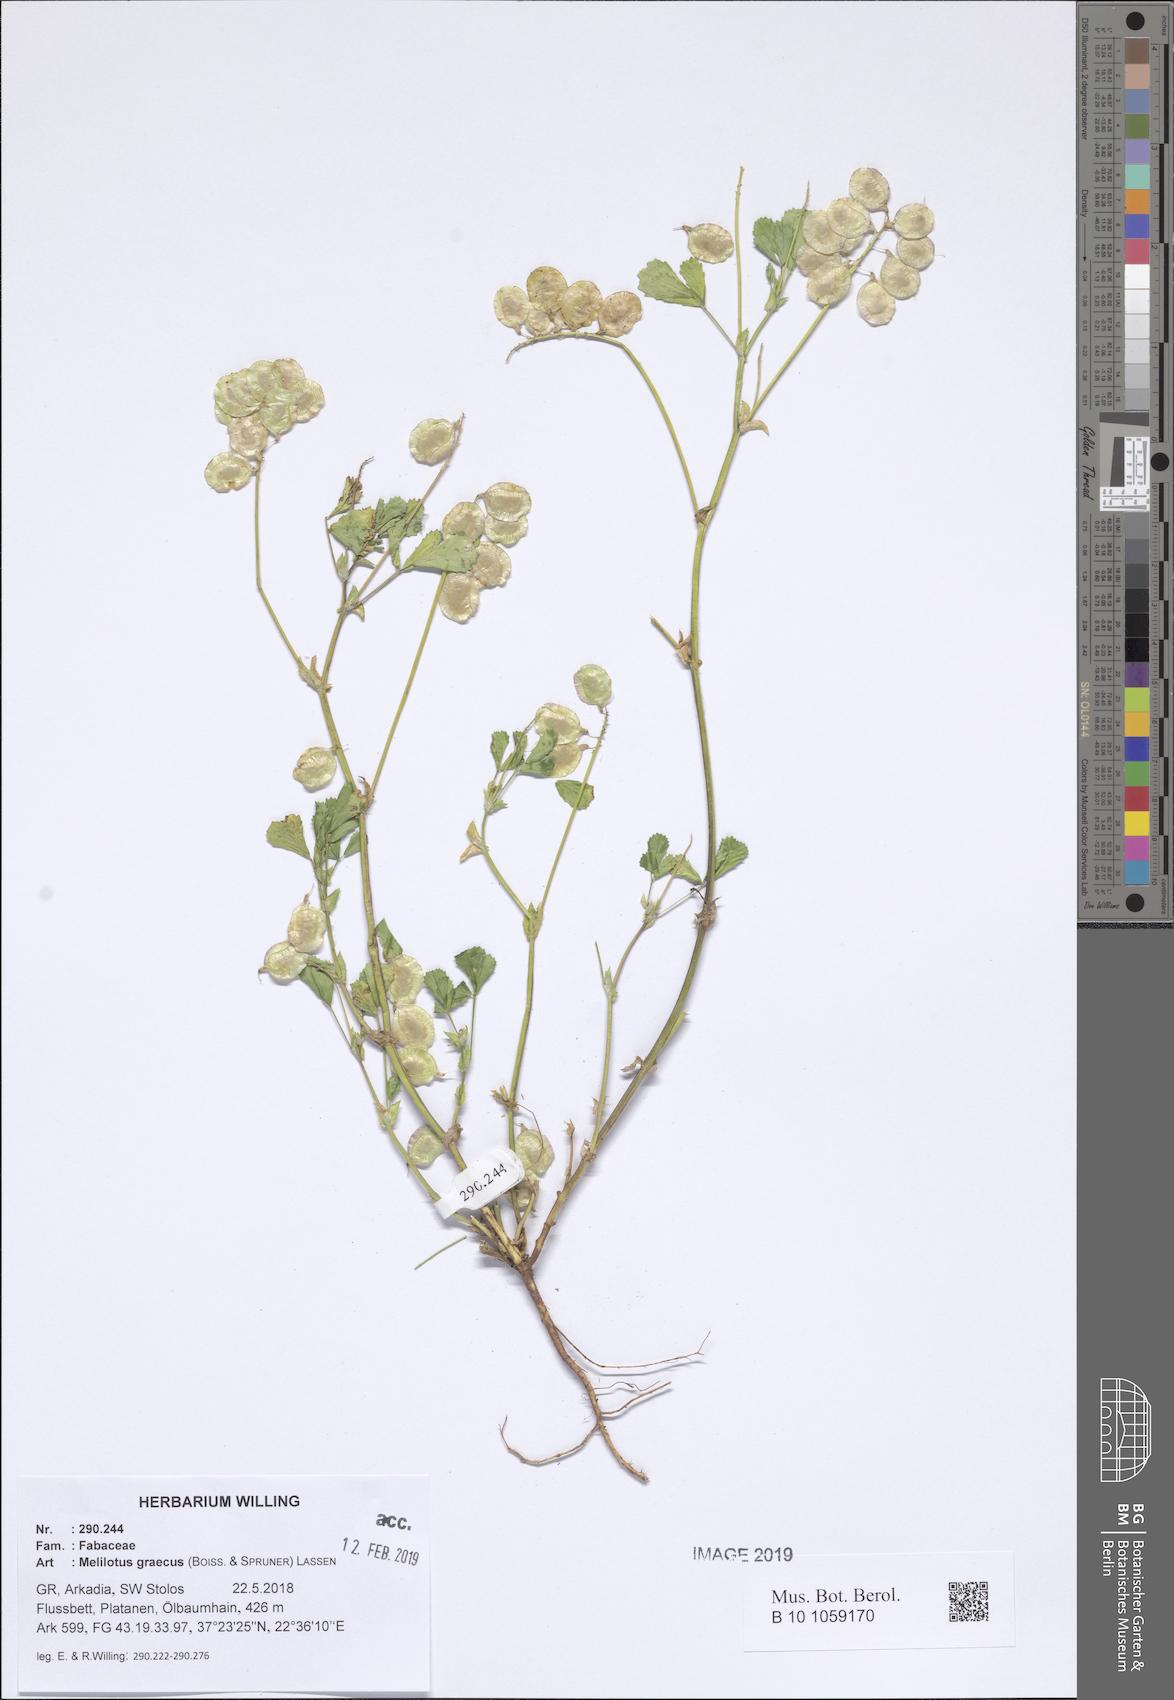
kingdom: Plantae
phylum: Tracheophyta
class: Magnoliopsida
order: Fabales
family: Fabaceae
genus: Trigonella
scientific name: Trigonella graeca
